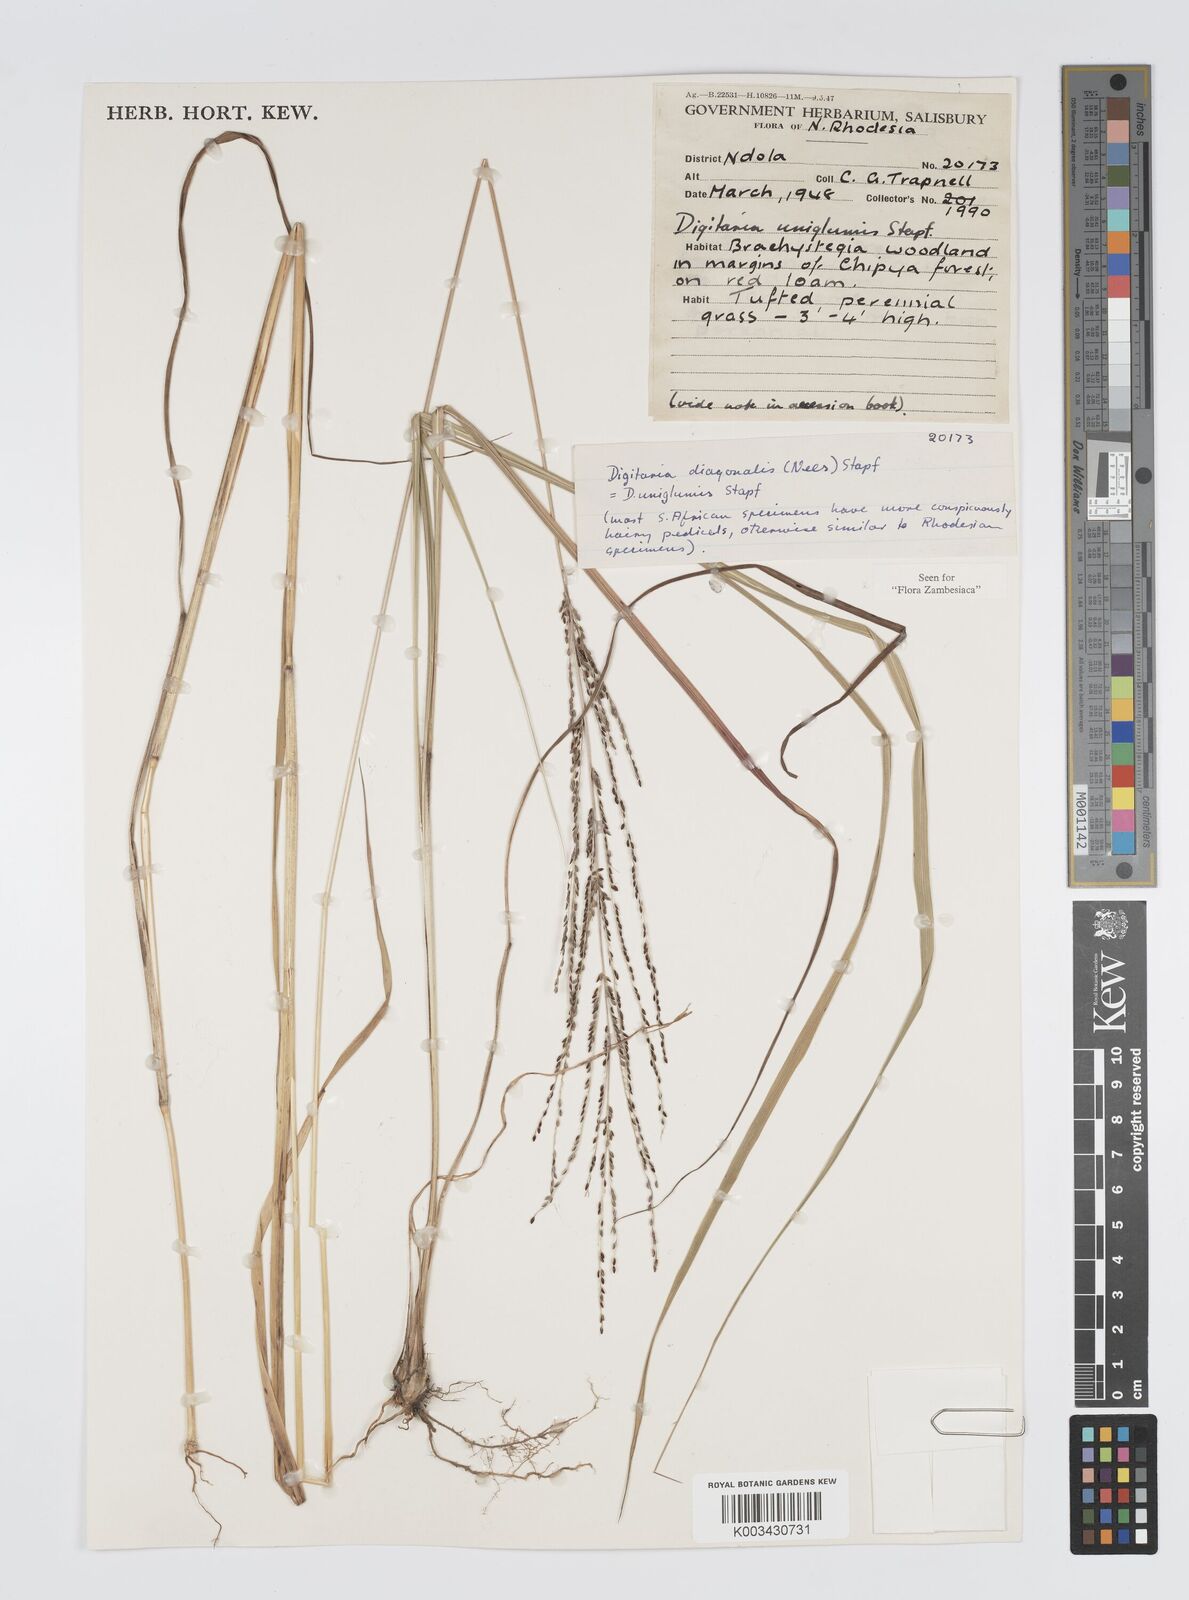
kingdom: Plantae
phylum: Tracheophyta
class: Liliopsida
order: Poales
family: Poaceae
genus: Digitaria
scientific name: Digitaria diagonalis
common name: Brown-seed finger grass
